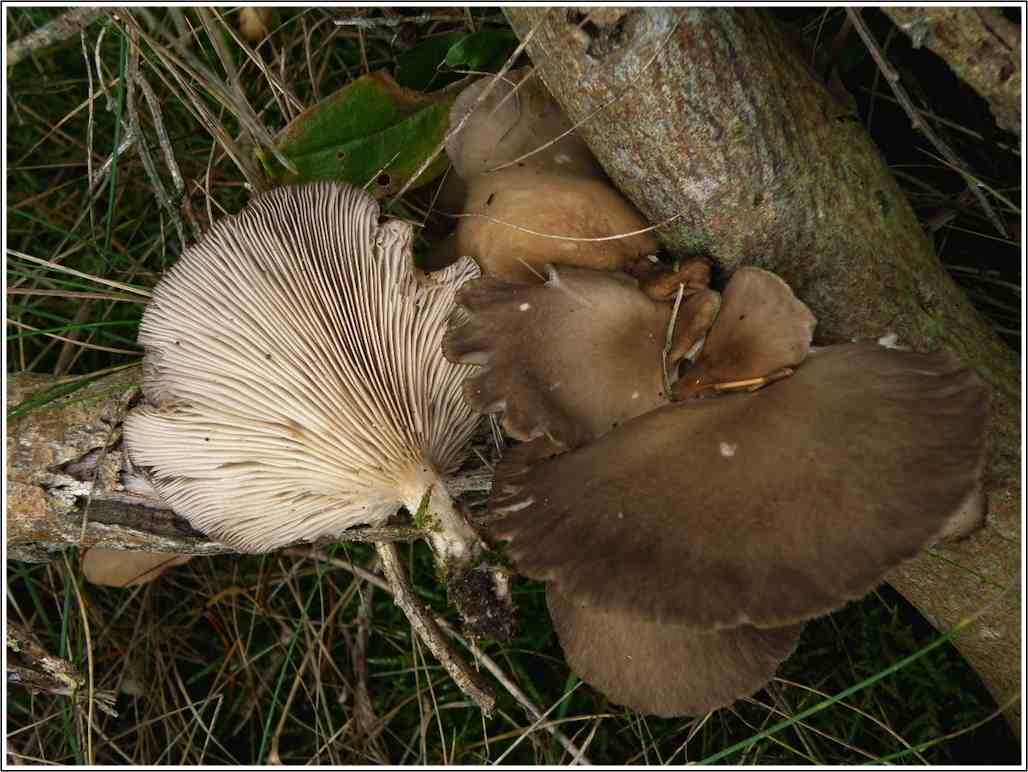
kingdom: Fungi
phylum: Basidiomycota
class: Agaricomycetes
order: Agaricales
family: Pleurotaceae
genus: Pleurotus
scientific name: Pleurotus ostreatus
